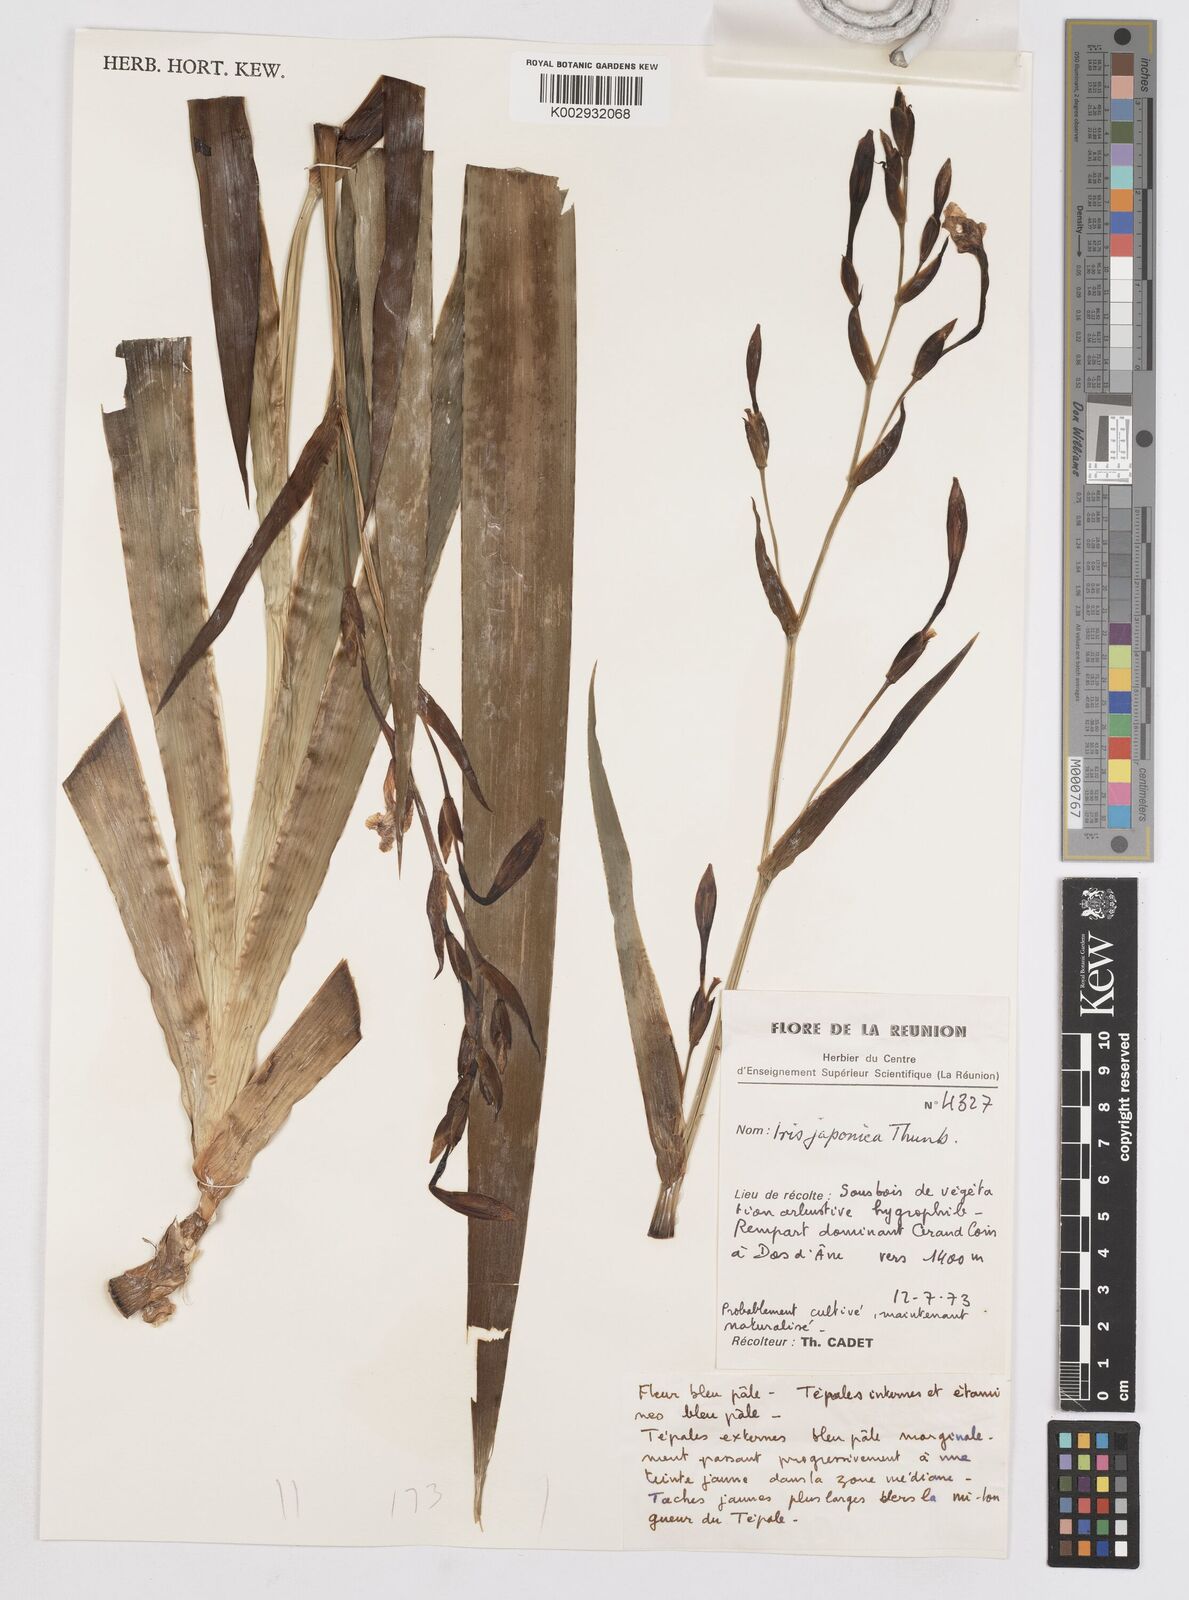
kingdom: Plantae
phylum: Tracheophyta
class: Liliopsida
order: Asparagales
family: Iridaceae
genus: Iris
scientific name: Iris japonica
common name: Butterfly-flower
